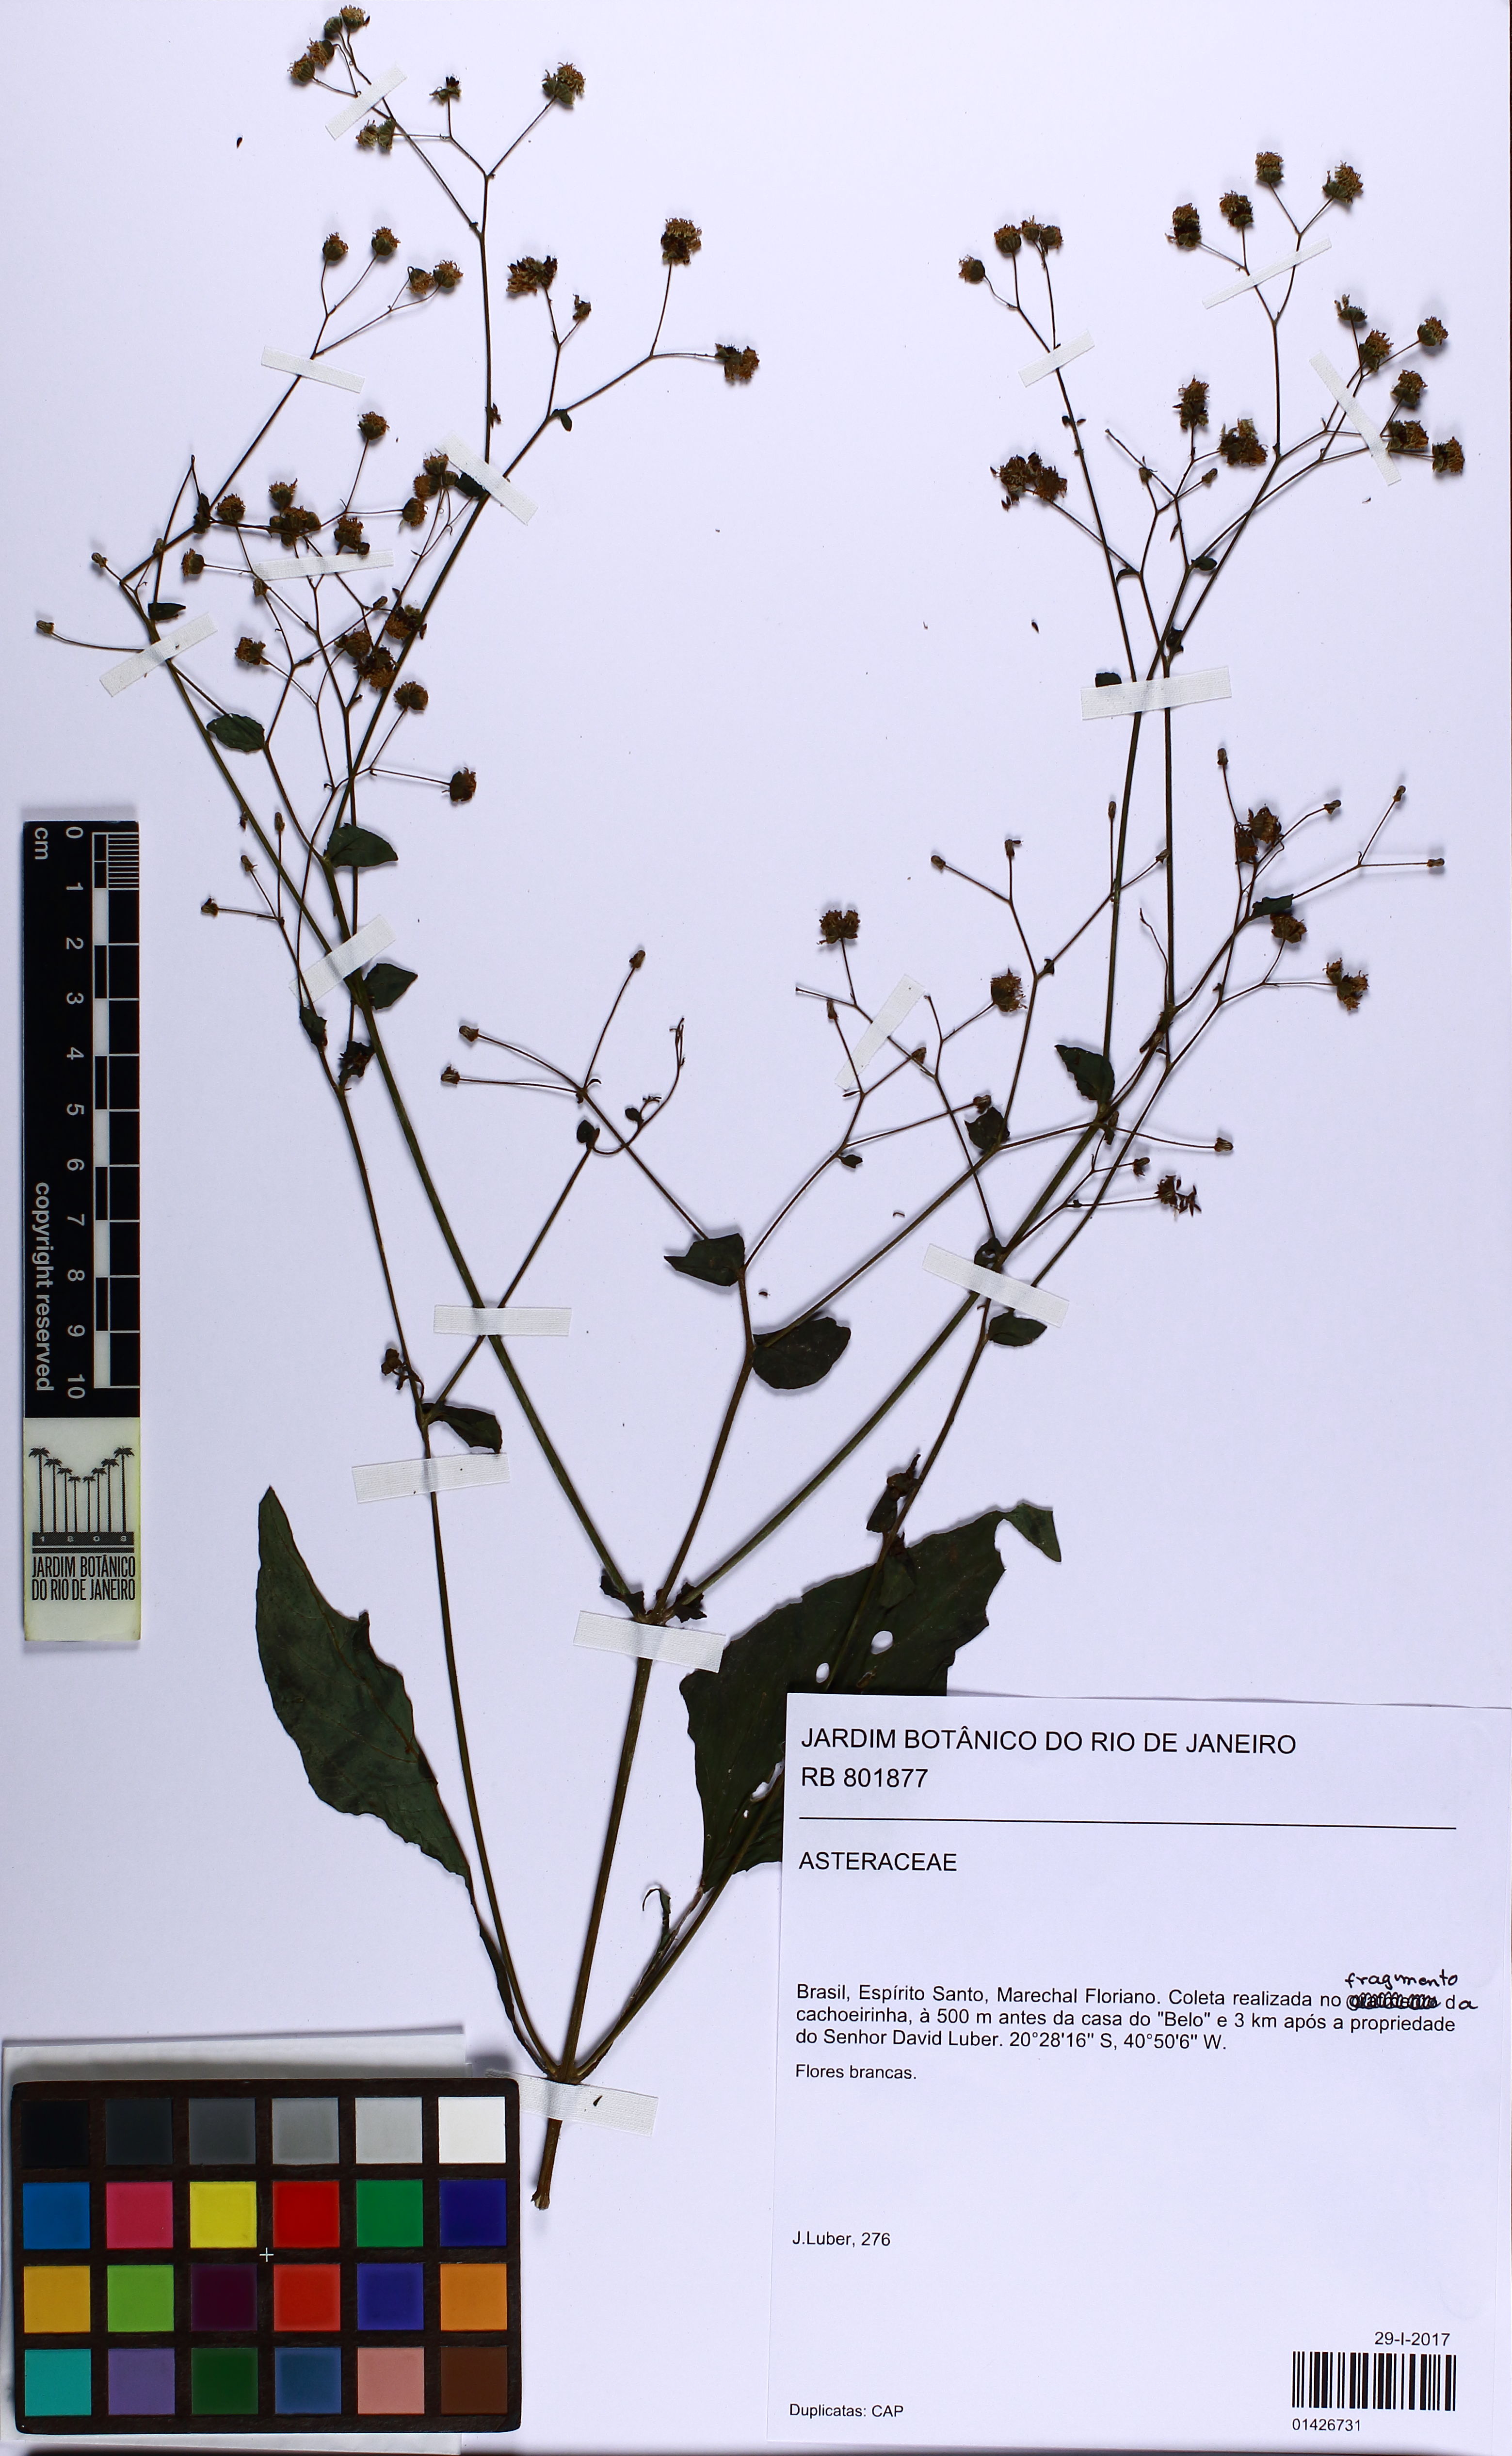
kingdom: Plantae
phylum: Tracheophyta
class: Magnoliopsida
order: Asterales
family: Asteraceae
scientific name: Asteraceae
